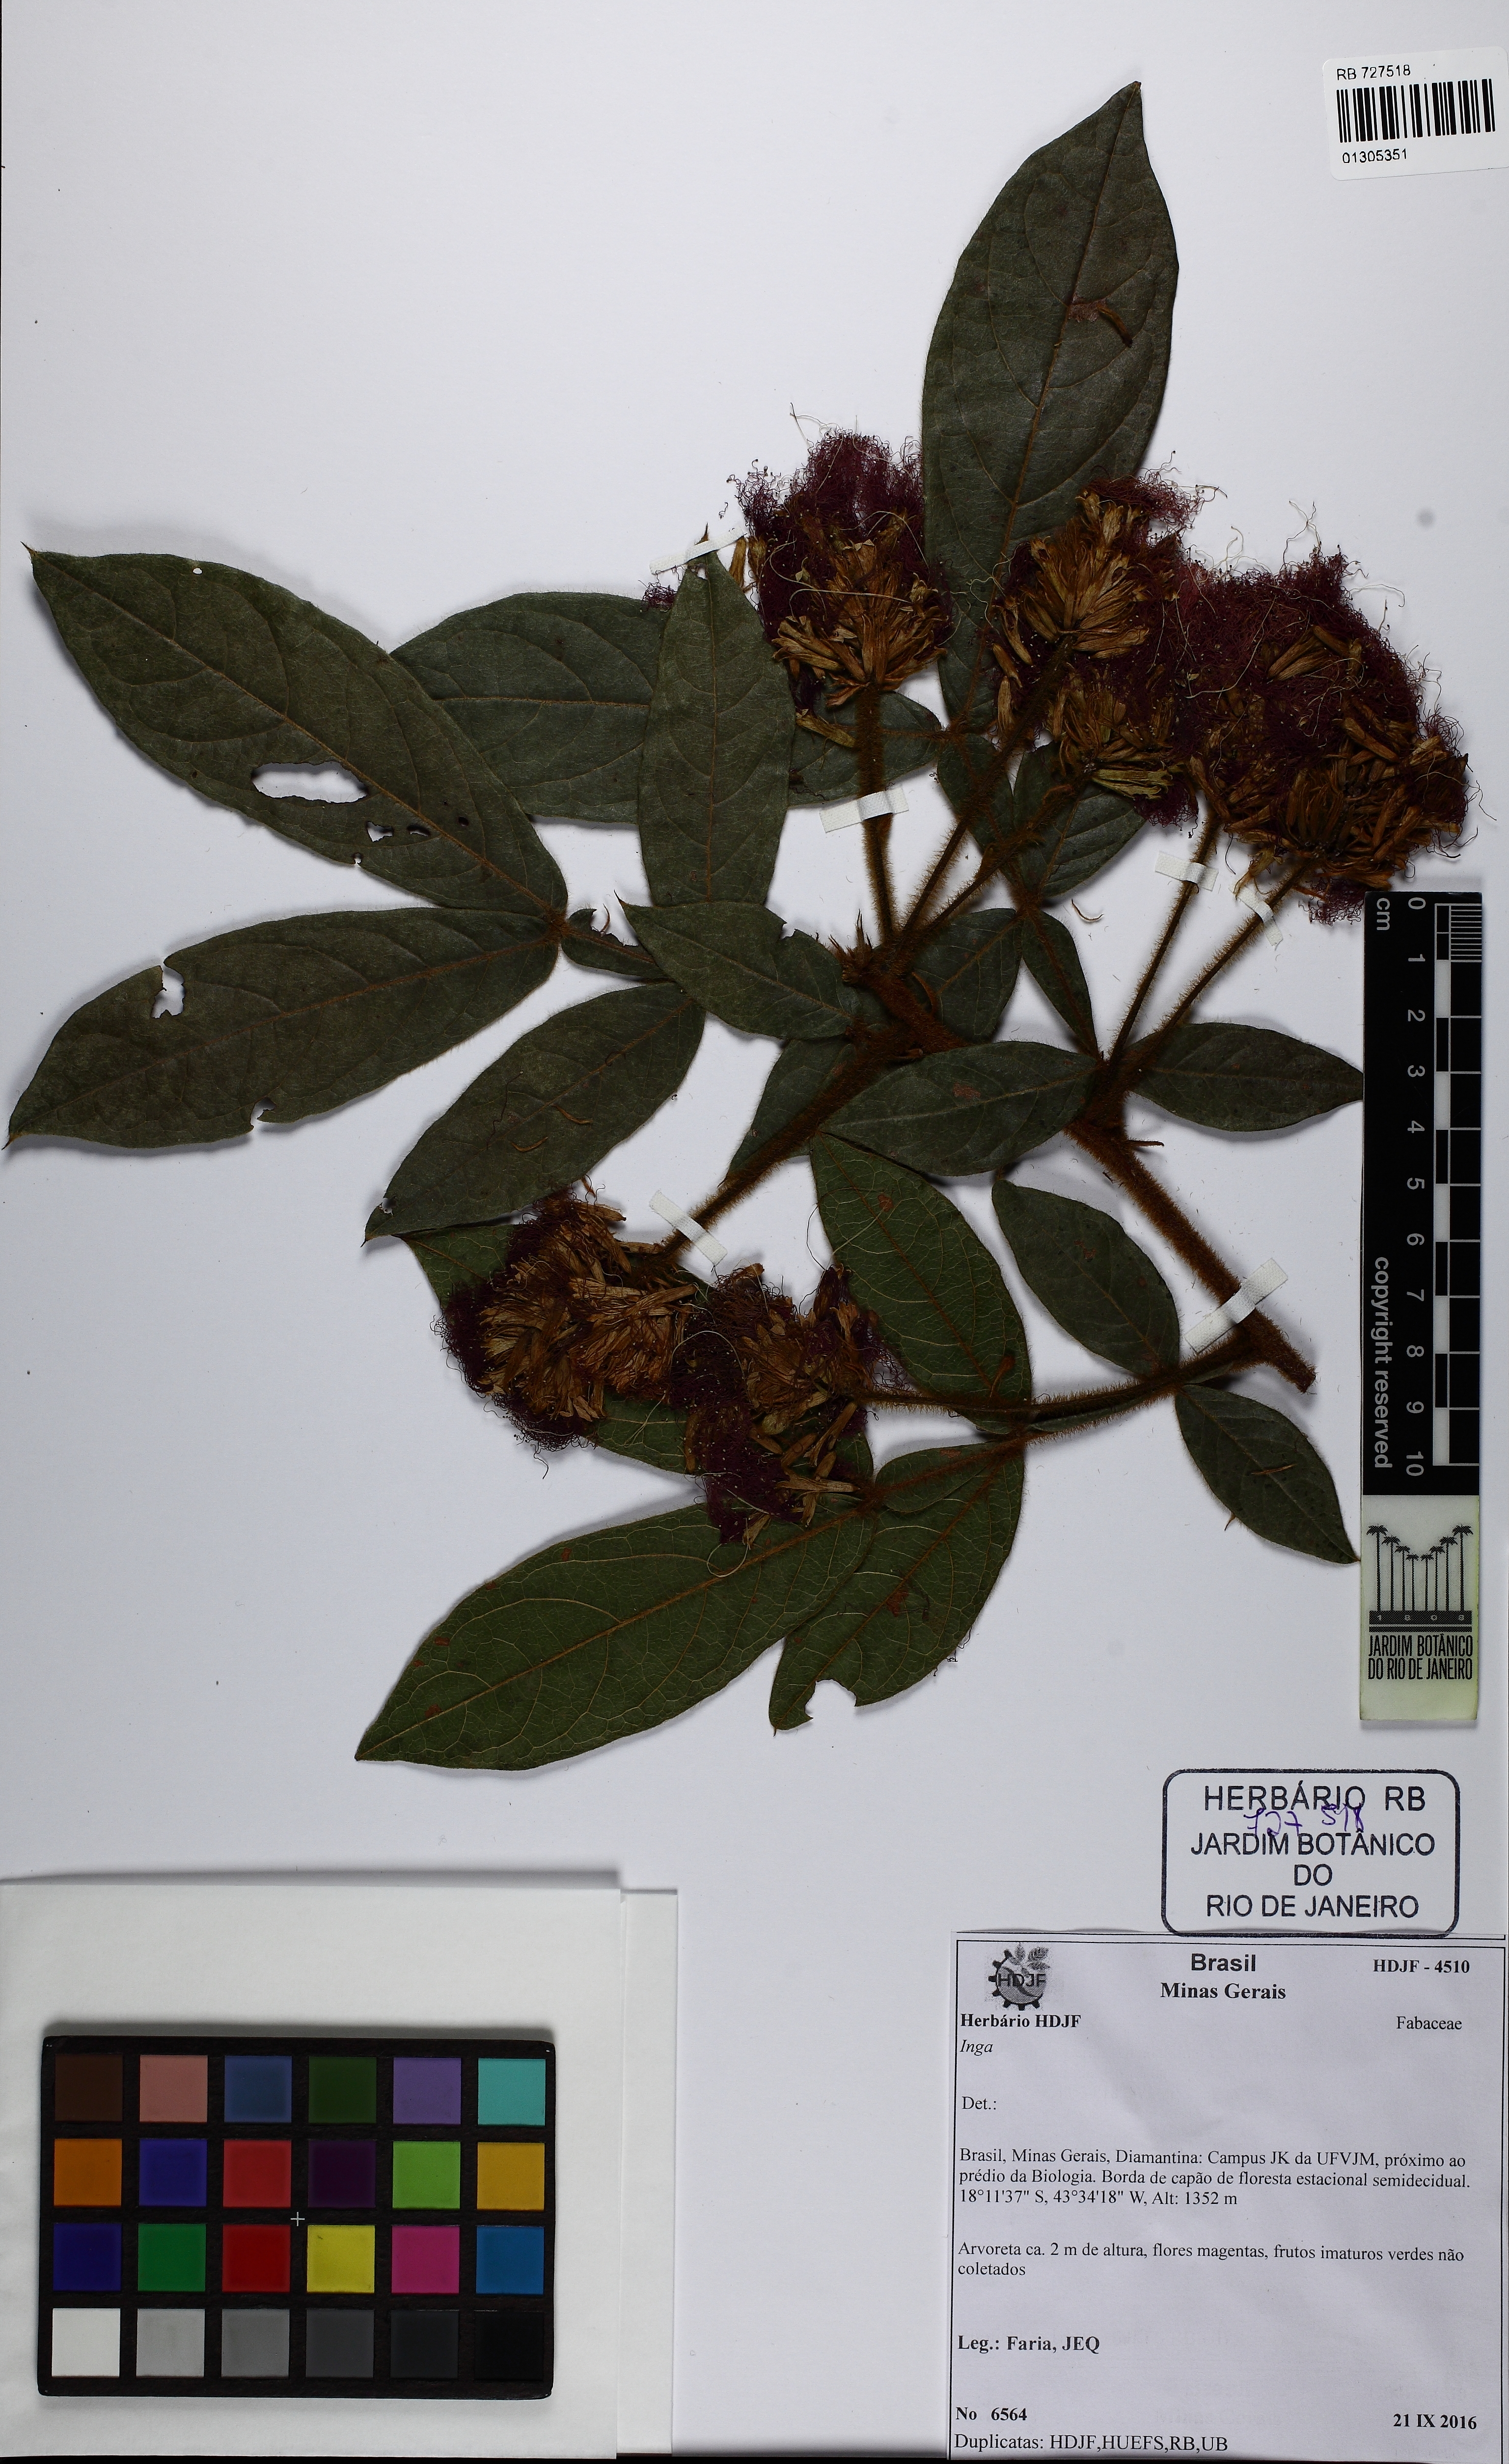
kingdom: Plantae
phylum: Tracheophyta
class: Magnoliopsida
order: Fabales
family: Fabaceae
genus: Inga
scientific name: Inga
